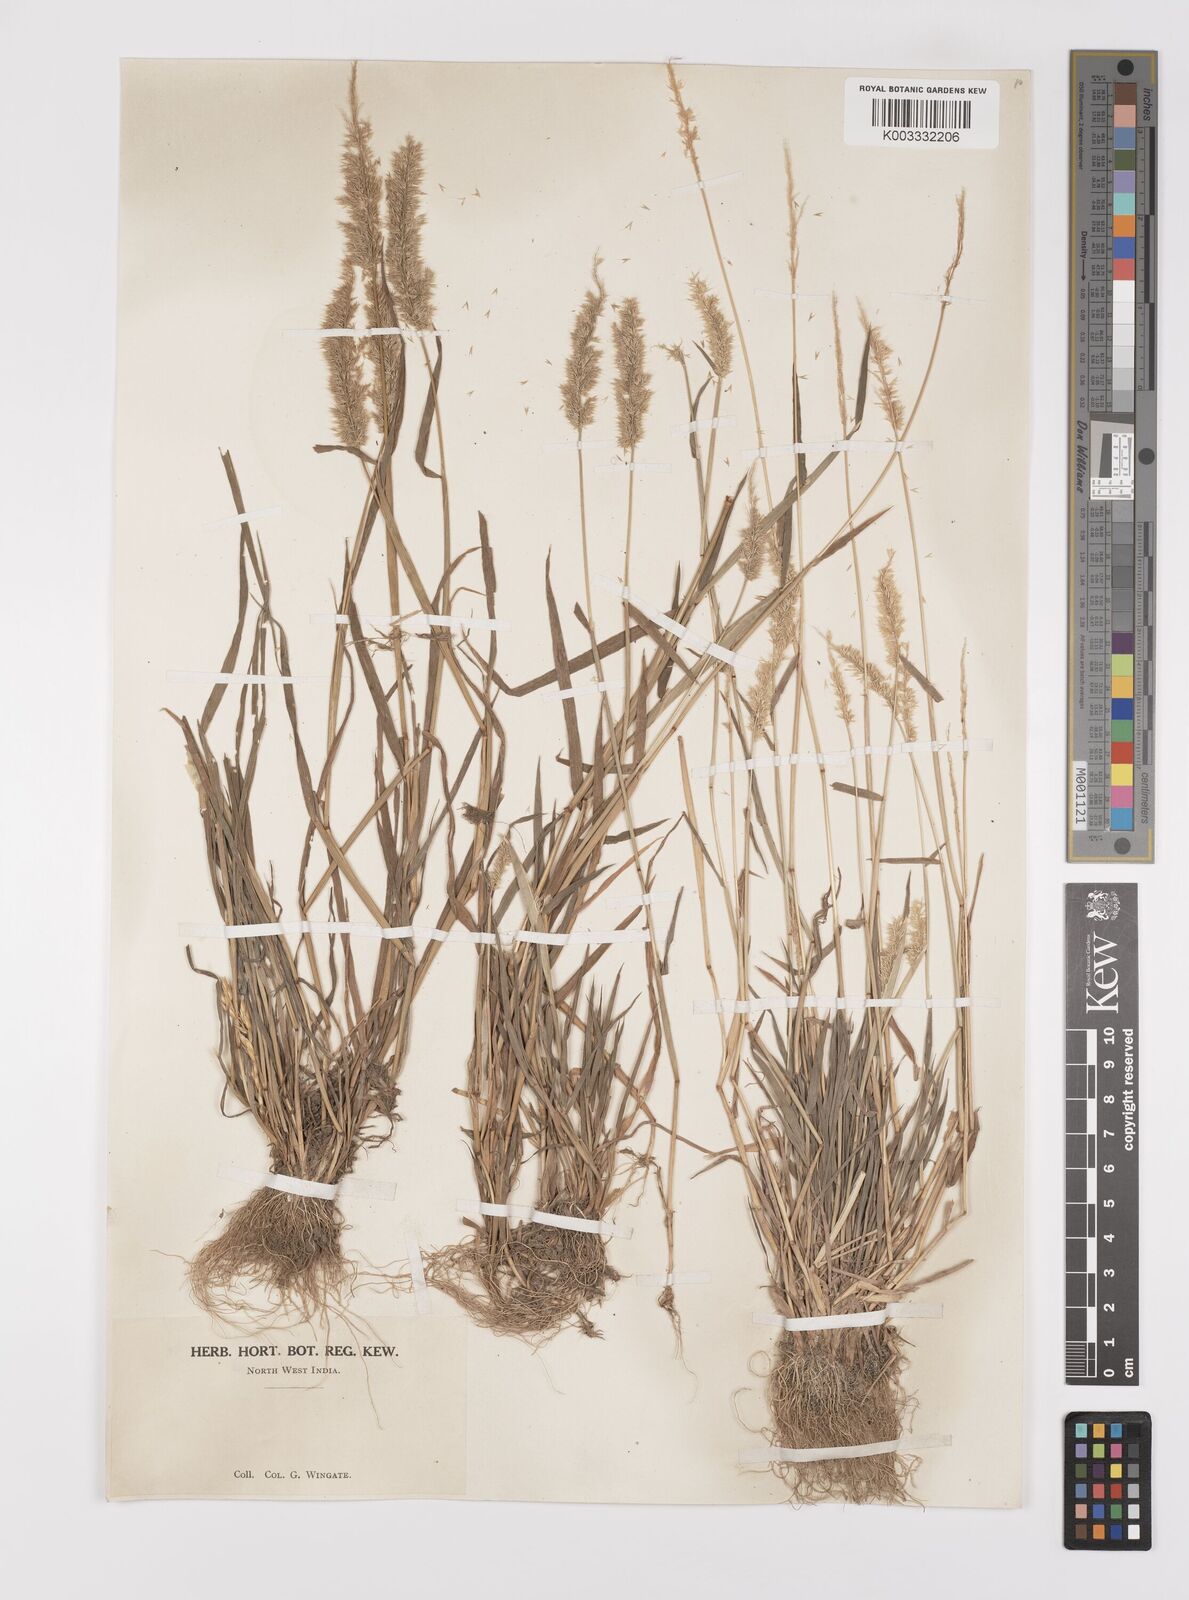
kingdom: Plantae
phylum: Tracheophyta
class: Liliopsida
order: Poales
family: Poaceae
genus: Polypogon
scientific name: Polypogon fugax
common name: Asia minor bluegrass
